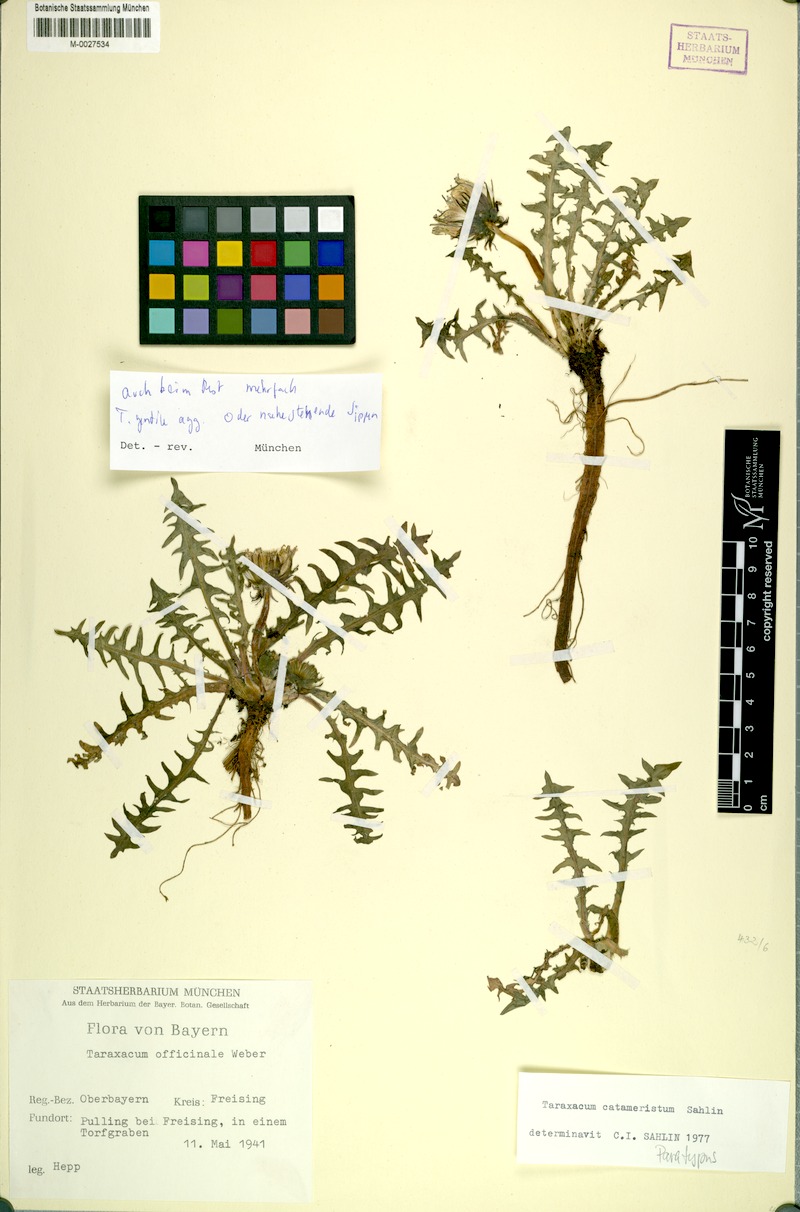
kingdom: Plantae
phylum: Tracheophyta
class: Magnoliopsida
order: Asterales
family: Asteraceae
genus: Taraxacum
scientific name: Taraxacum gentile
